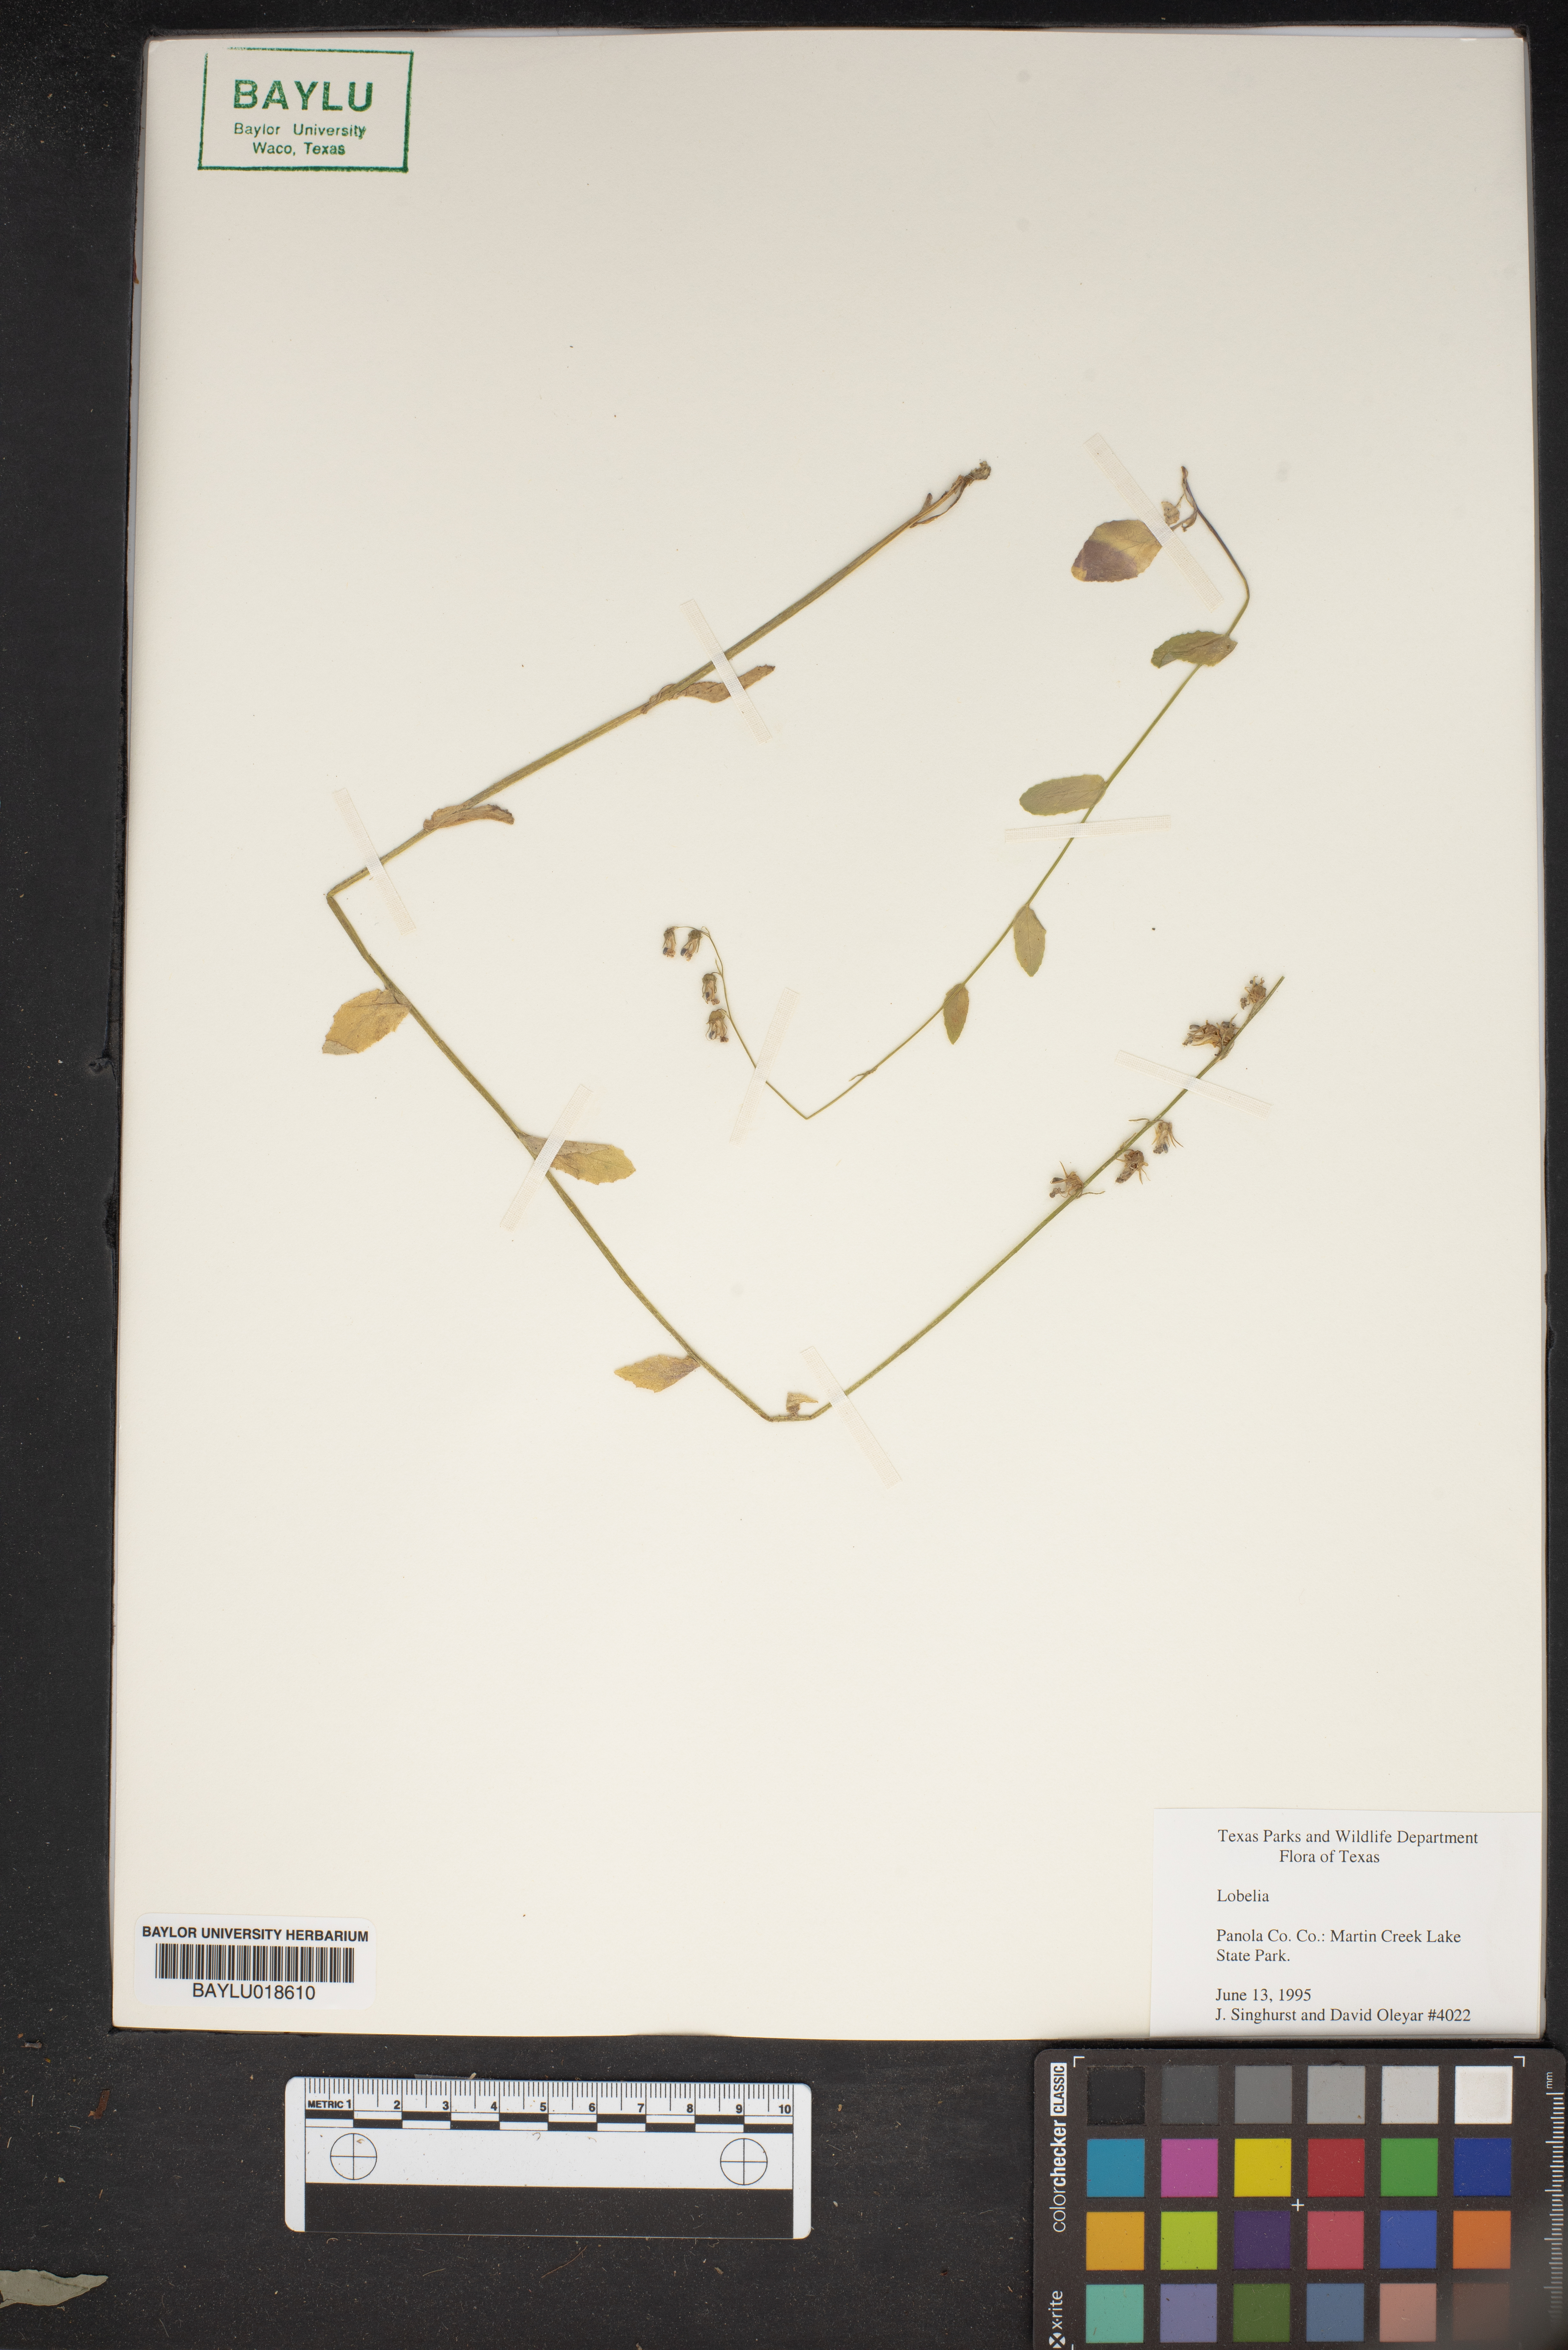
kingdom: Plantae
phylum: Tracheophyta
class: Magnoliopsida
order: Asterales
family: Campanulaceae
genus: Lobelia
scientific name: Lobelia
